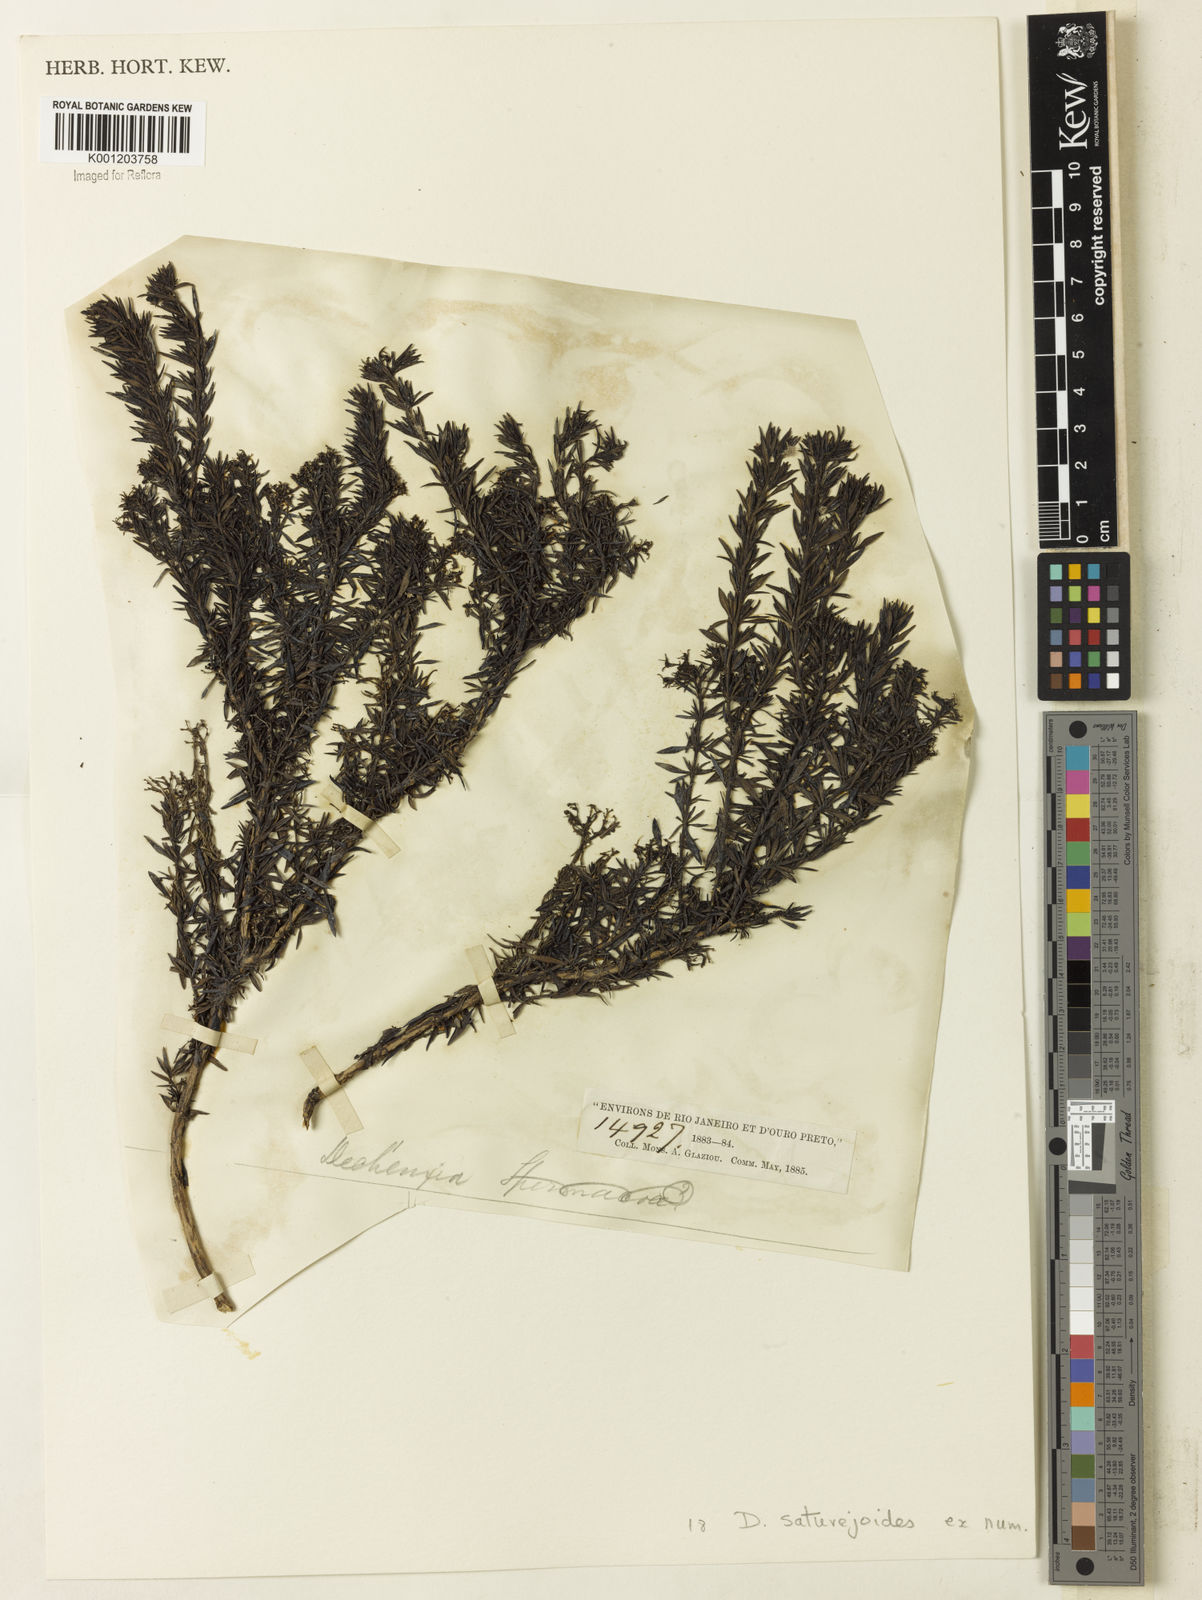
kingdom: Plantae
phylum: Tracheophyta
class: Magnoliopsida
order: Gentianales
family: Rubiaceae
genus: Declieuxia
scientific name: Declieuxia
